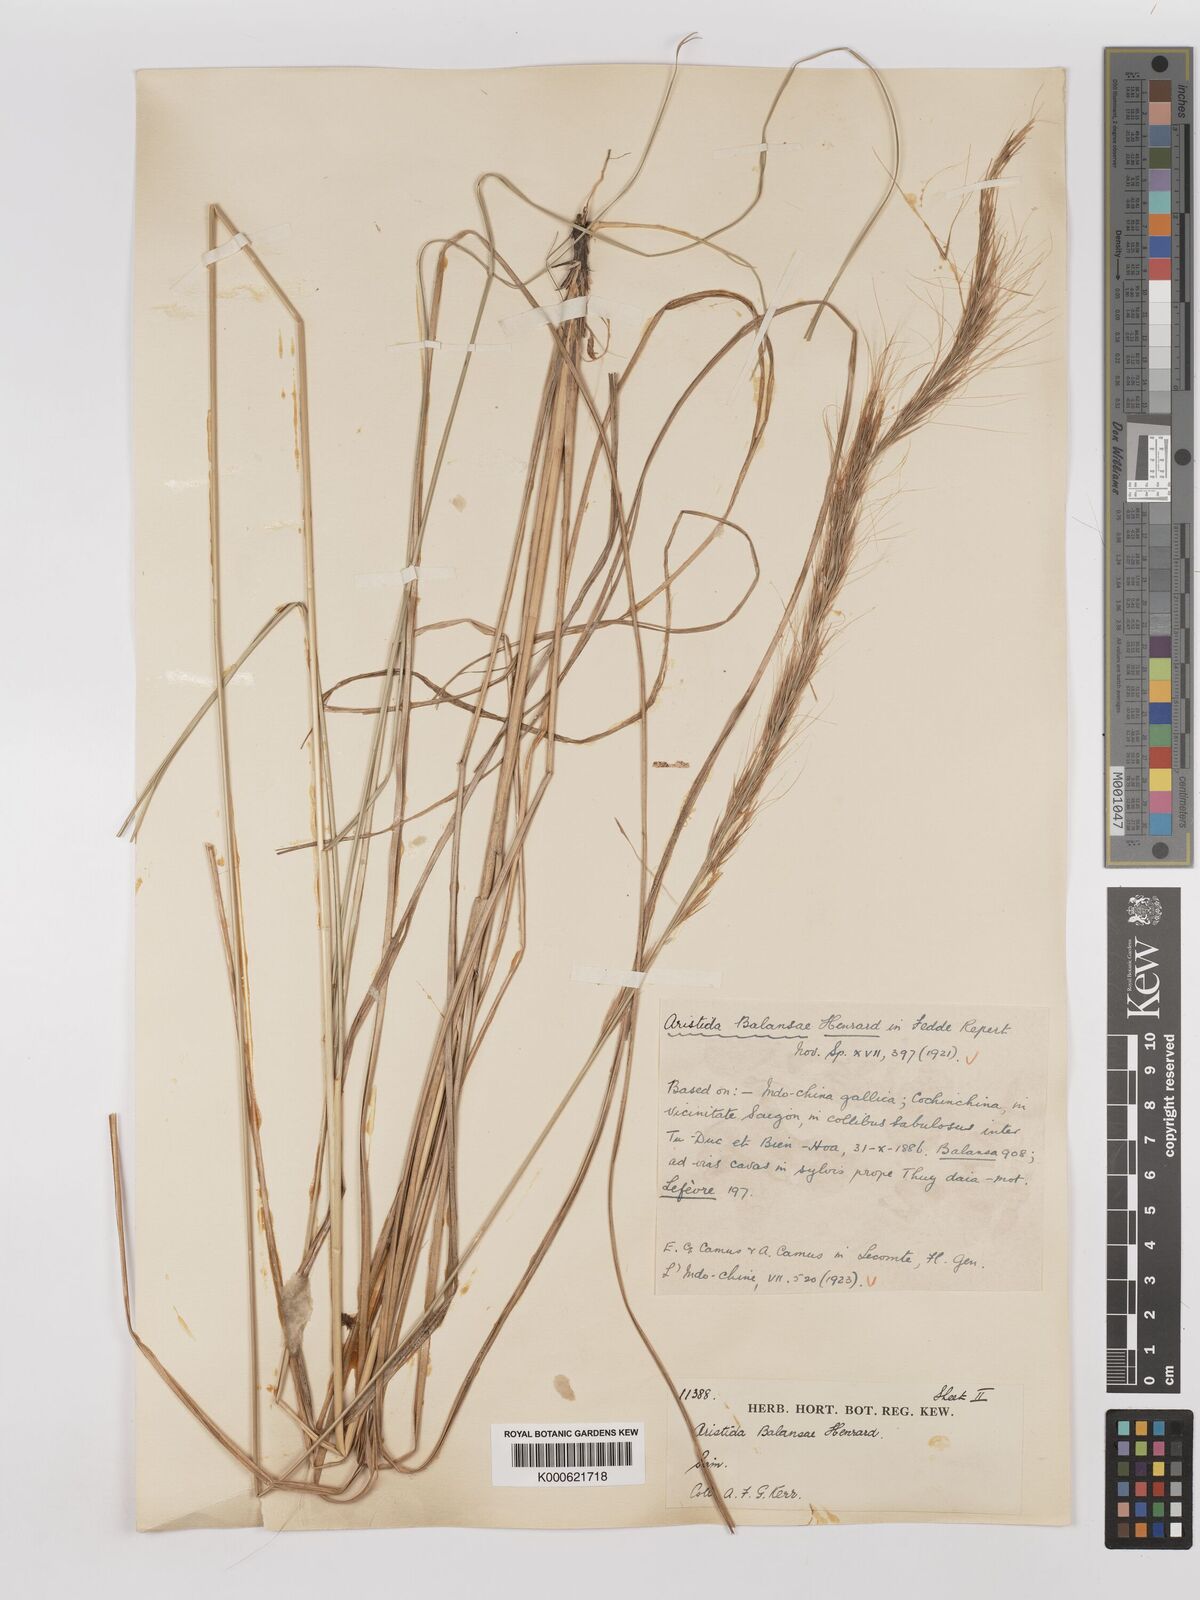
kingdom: Plantae
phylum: Tracheophyta
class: Liliopsida
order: Poales
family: Poaceae
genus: Aristida
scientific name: Aristida balansae
